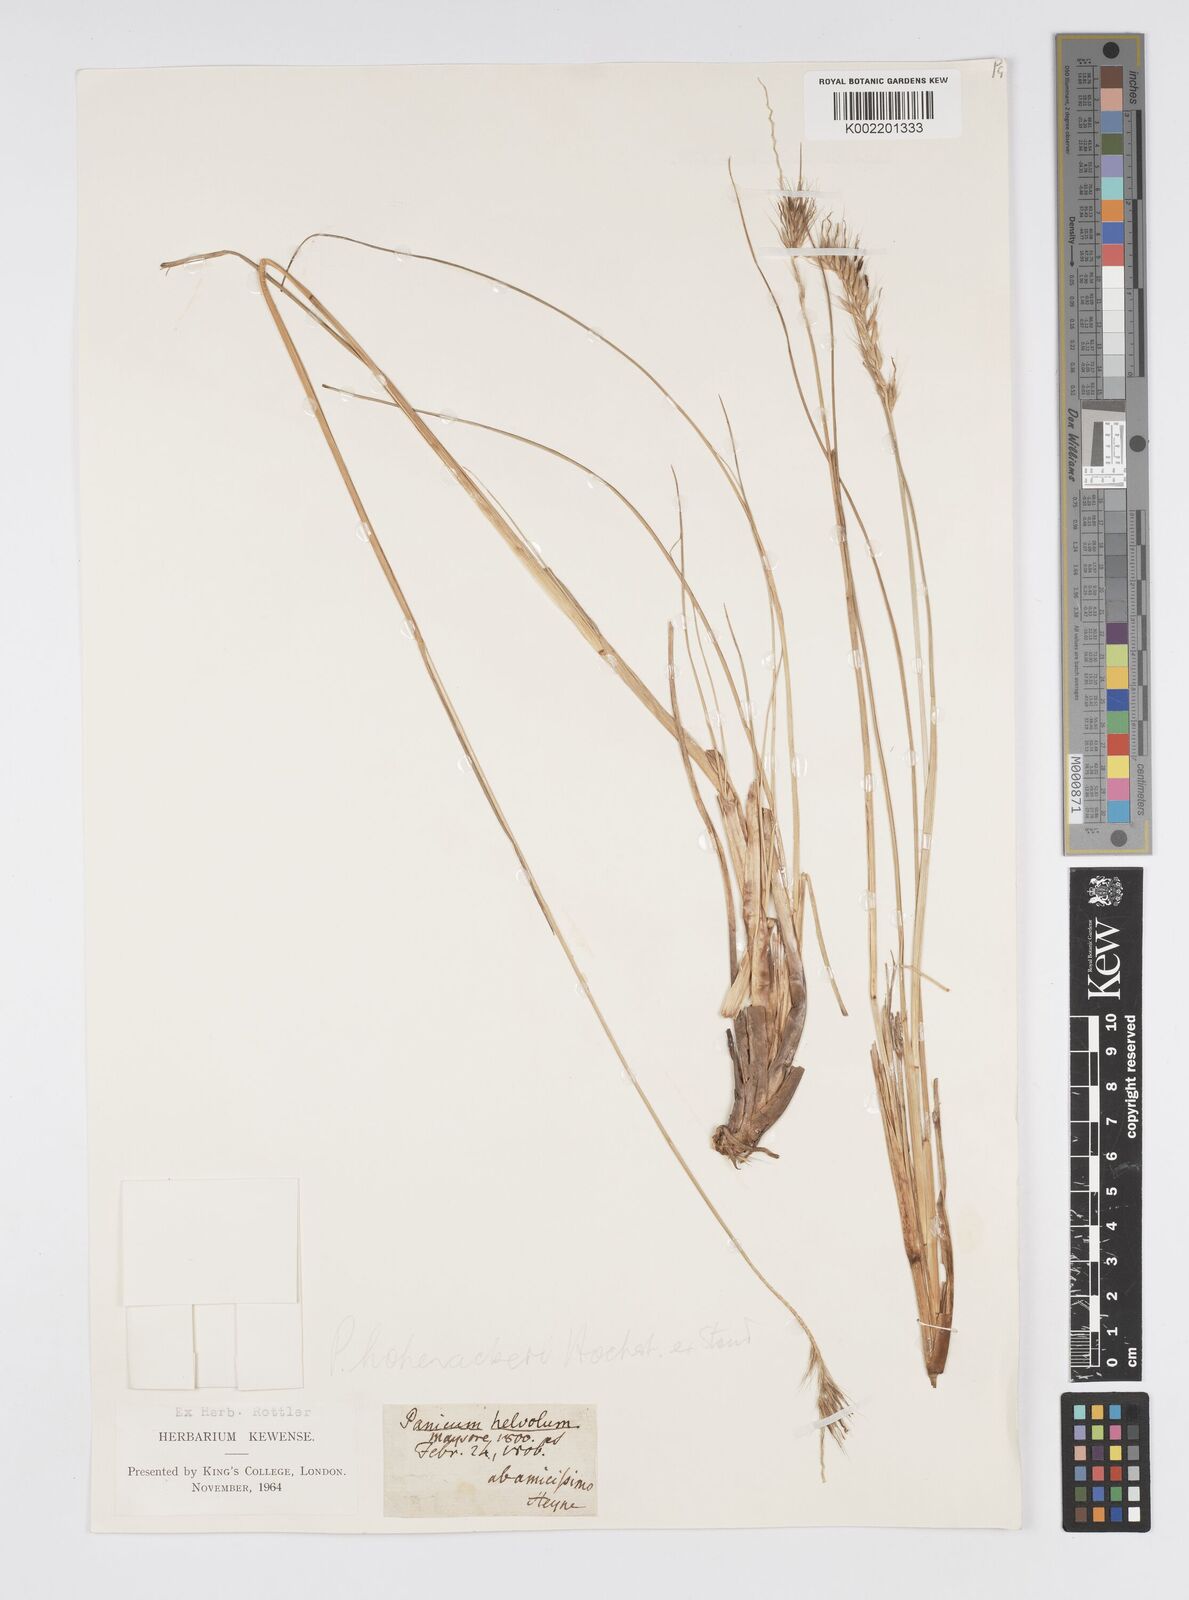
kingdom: Plantae
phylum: Tracheophyta
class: Liliopsida
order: Poales
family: Poaceae
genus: Cenchrus
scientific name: Cenchrus hohenackeri
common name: Moya grass
